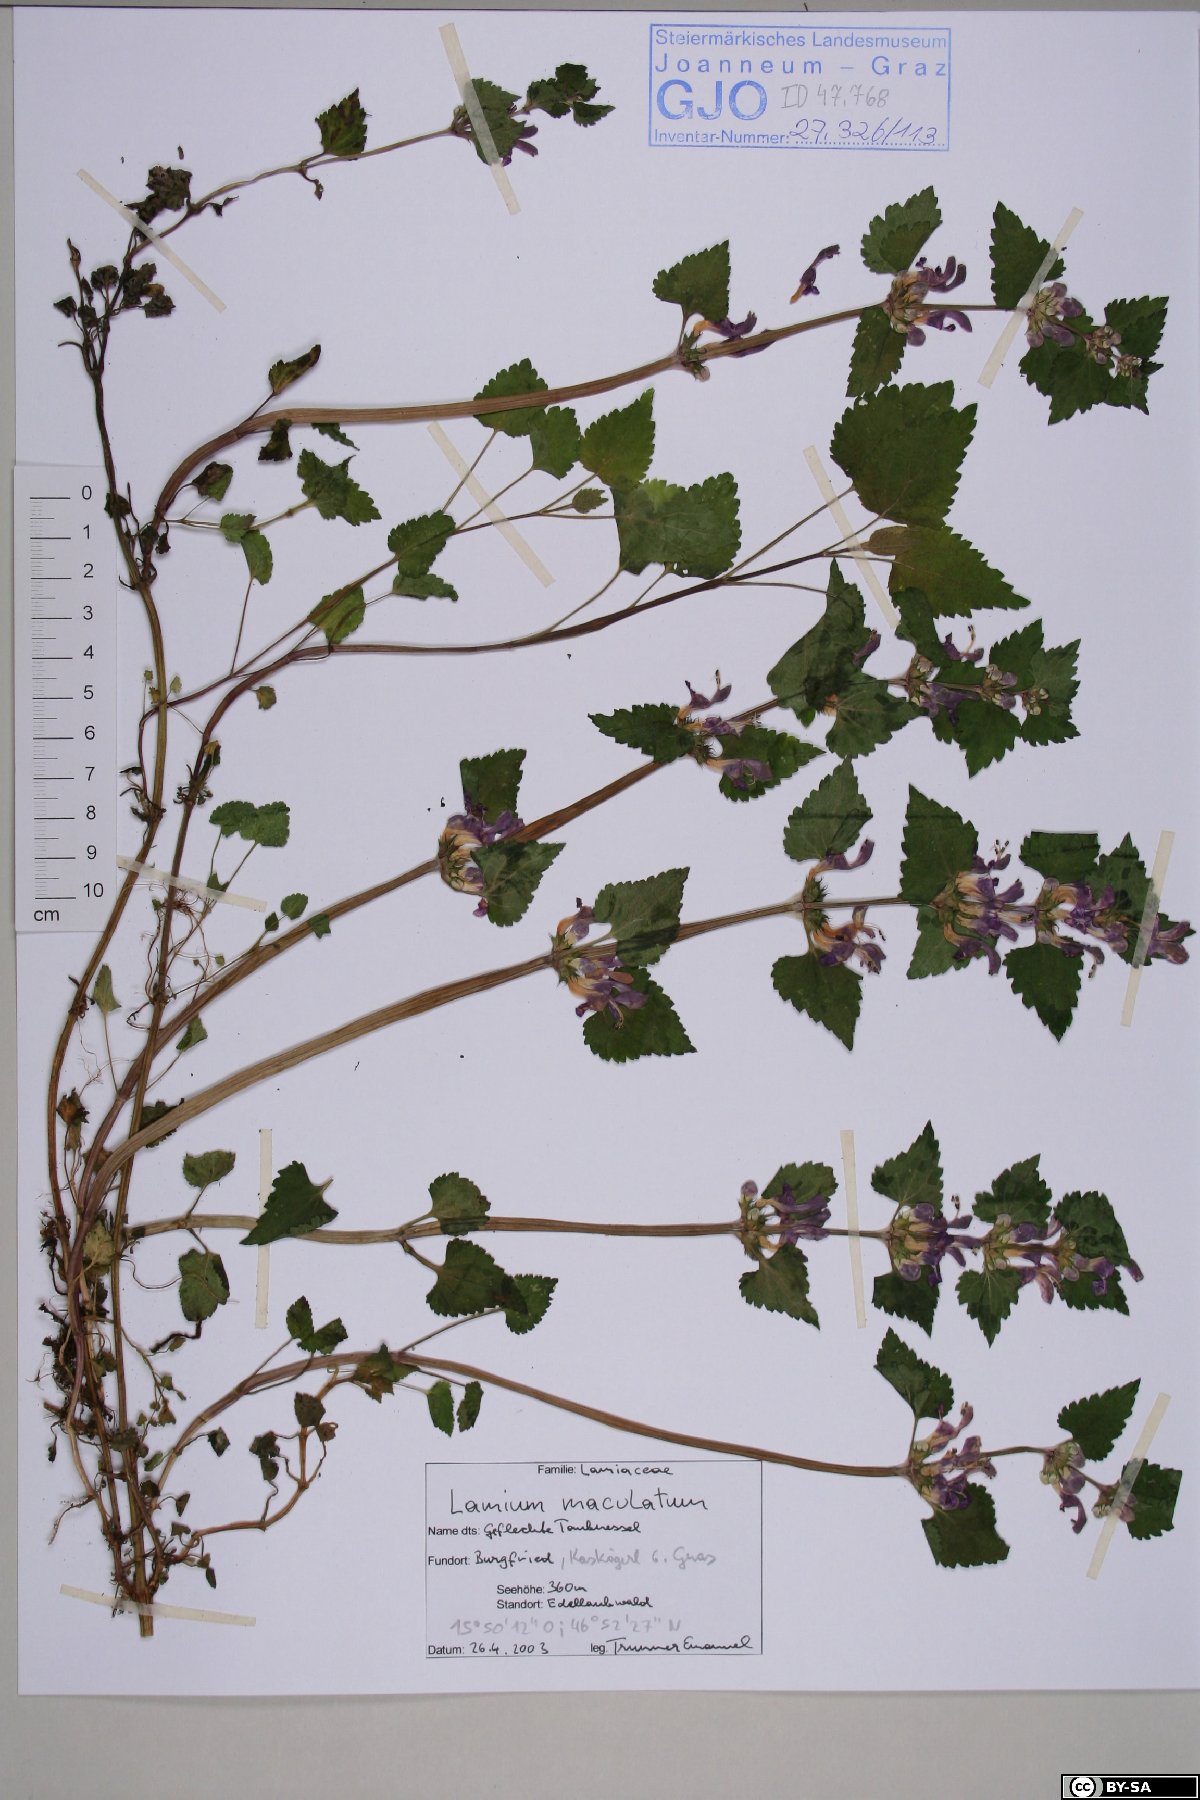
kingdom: Plantae
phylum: Tracheophyta
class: Magnoliopsida
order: Lamiales
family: Lamiaceae
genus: Lamium
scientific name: Lamium maculatum
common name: Spotted dead-nettle
